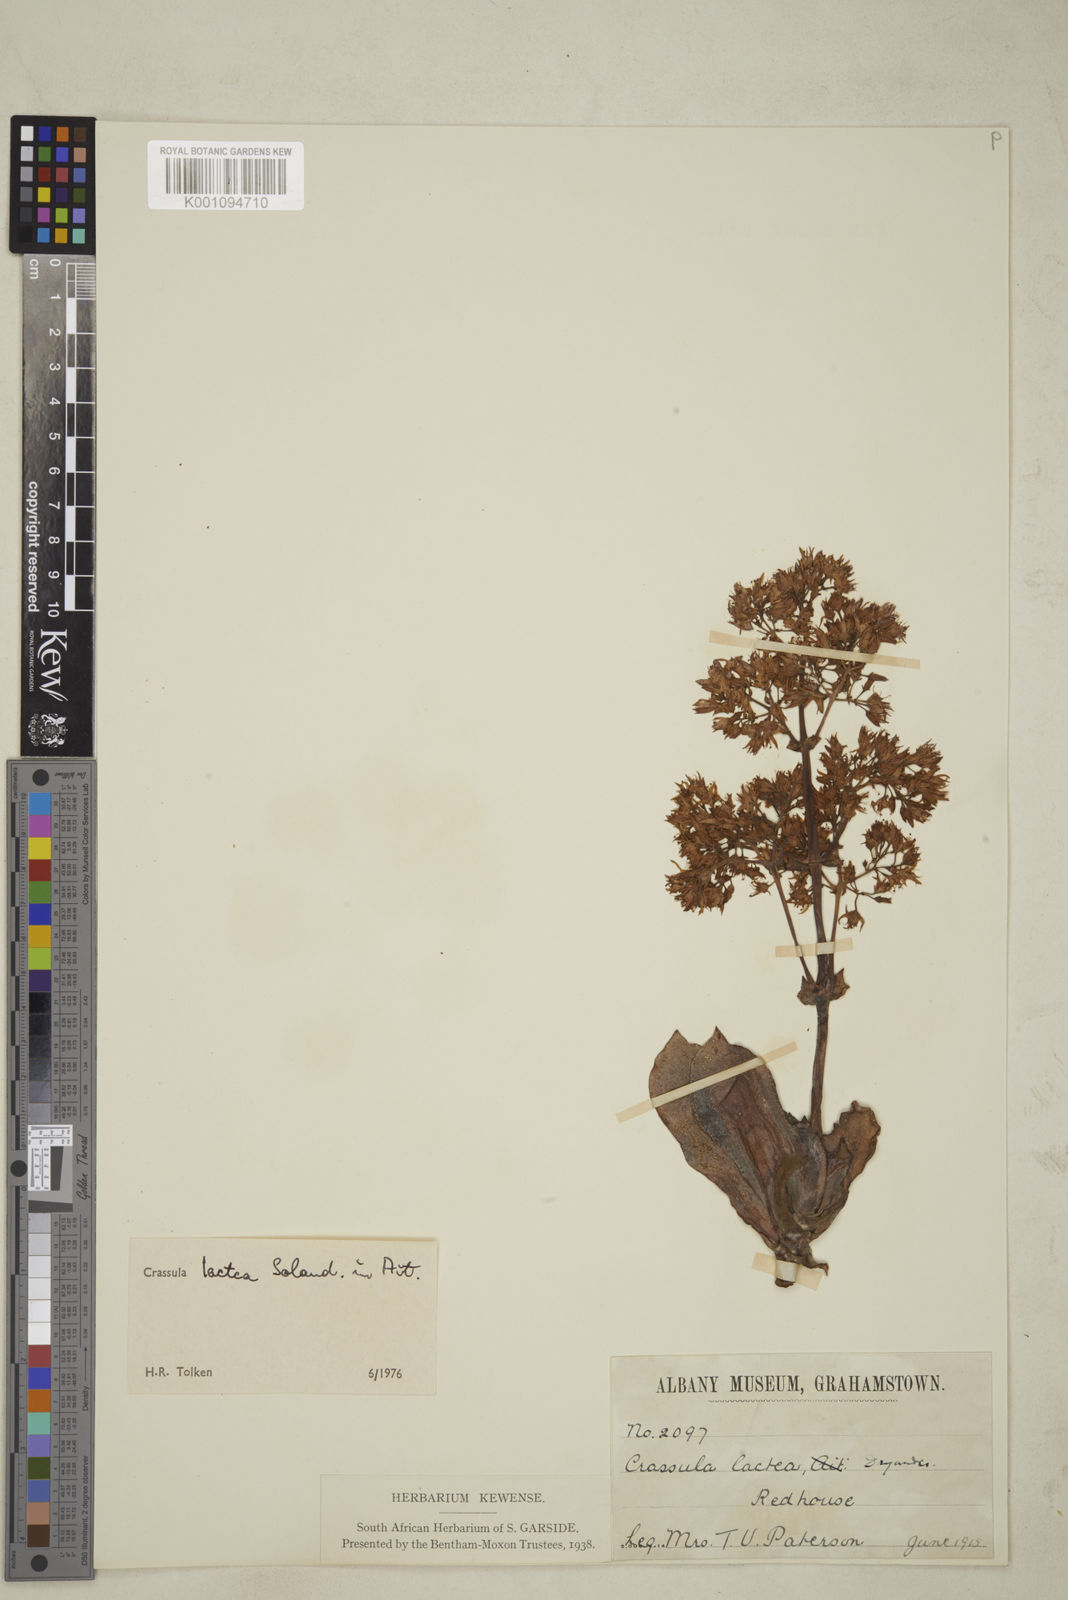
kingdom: Plantae
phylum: Tracheophyta
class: Magnoliopsida
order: Saxifragales
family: Crassulaceae
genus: Crassula
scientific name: Crassula lactea
